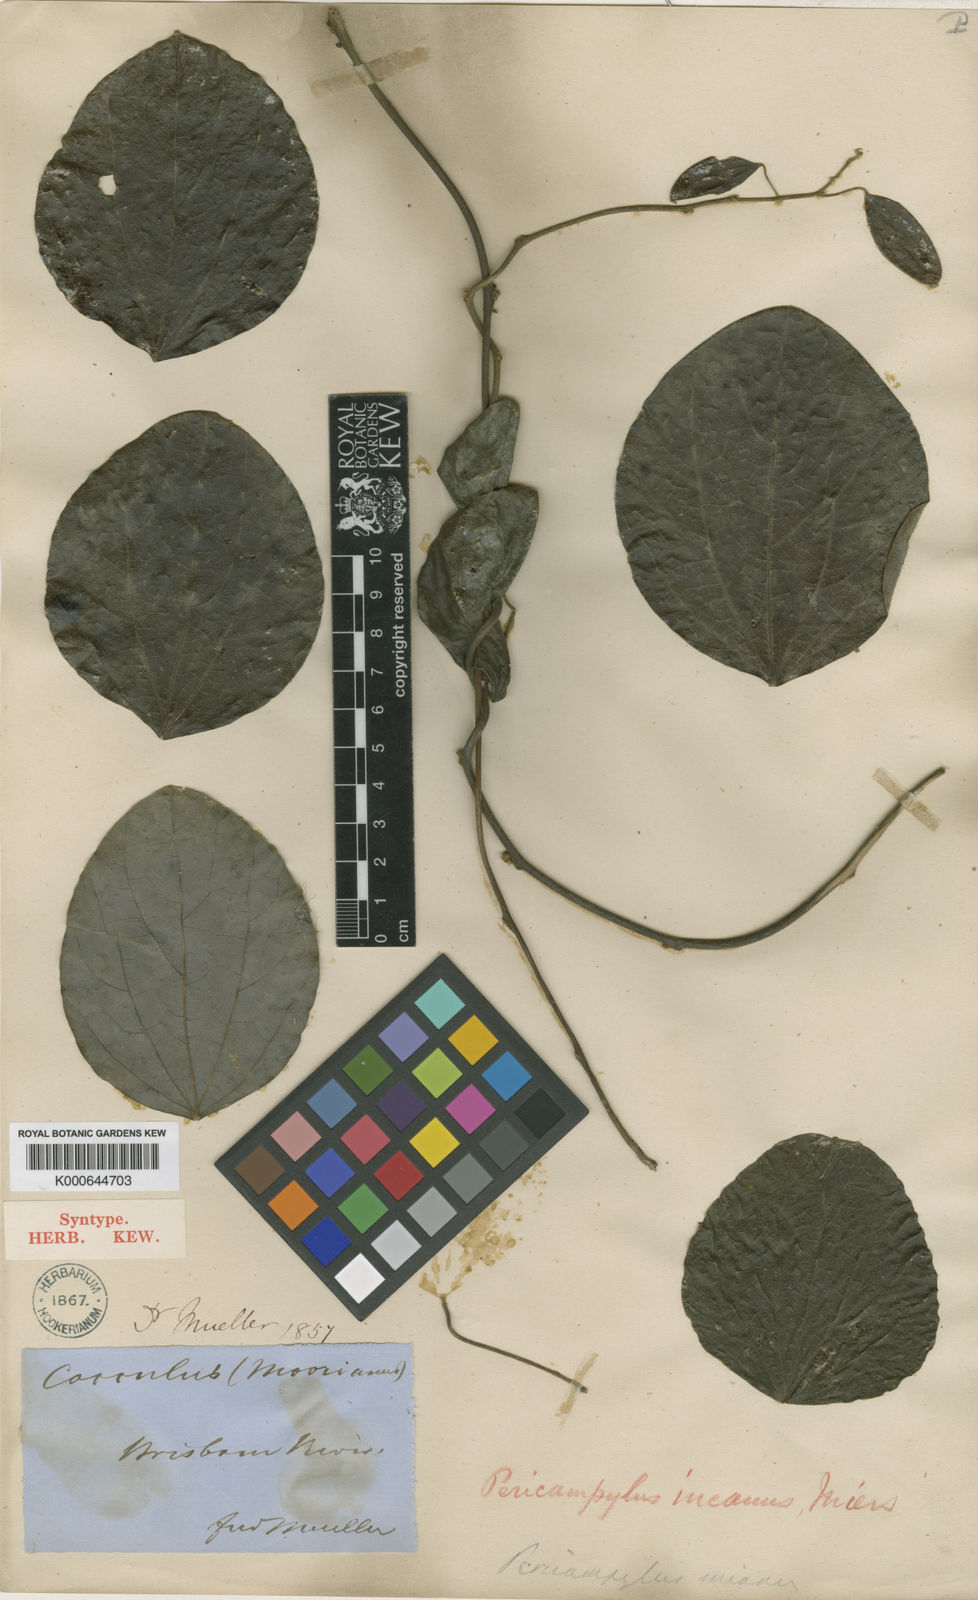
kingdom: Plantae
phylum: Tracheophyta
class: Magnoliopsida
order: Ranunculales
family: Menispermaceae
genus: Legnephora
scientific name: Legnephora moorei
